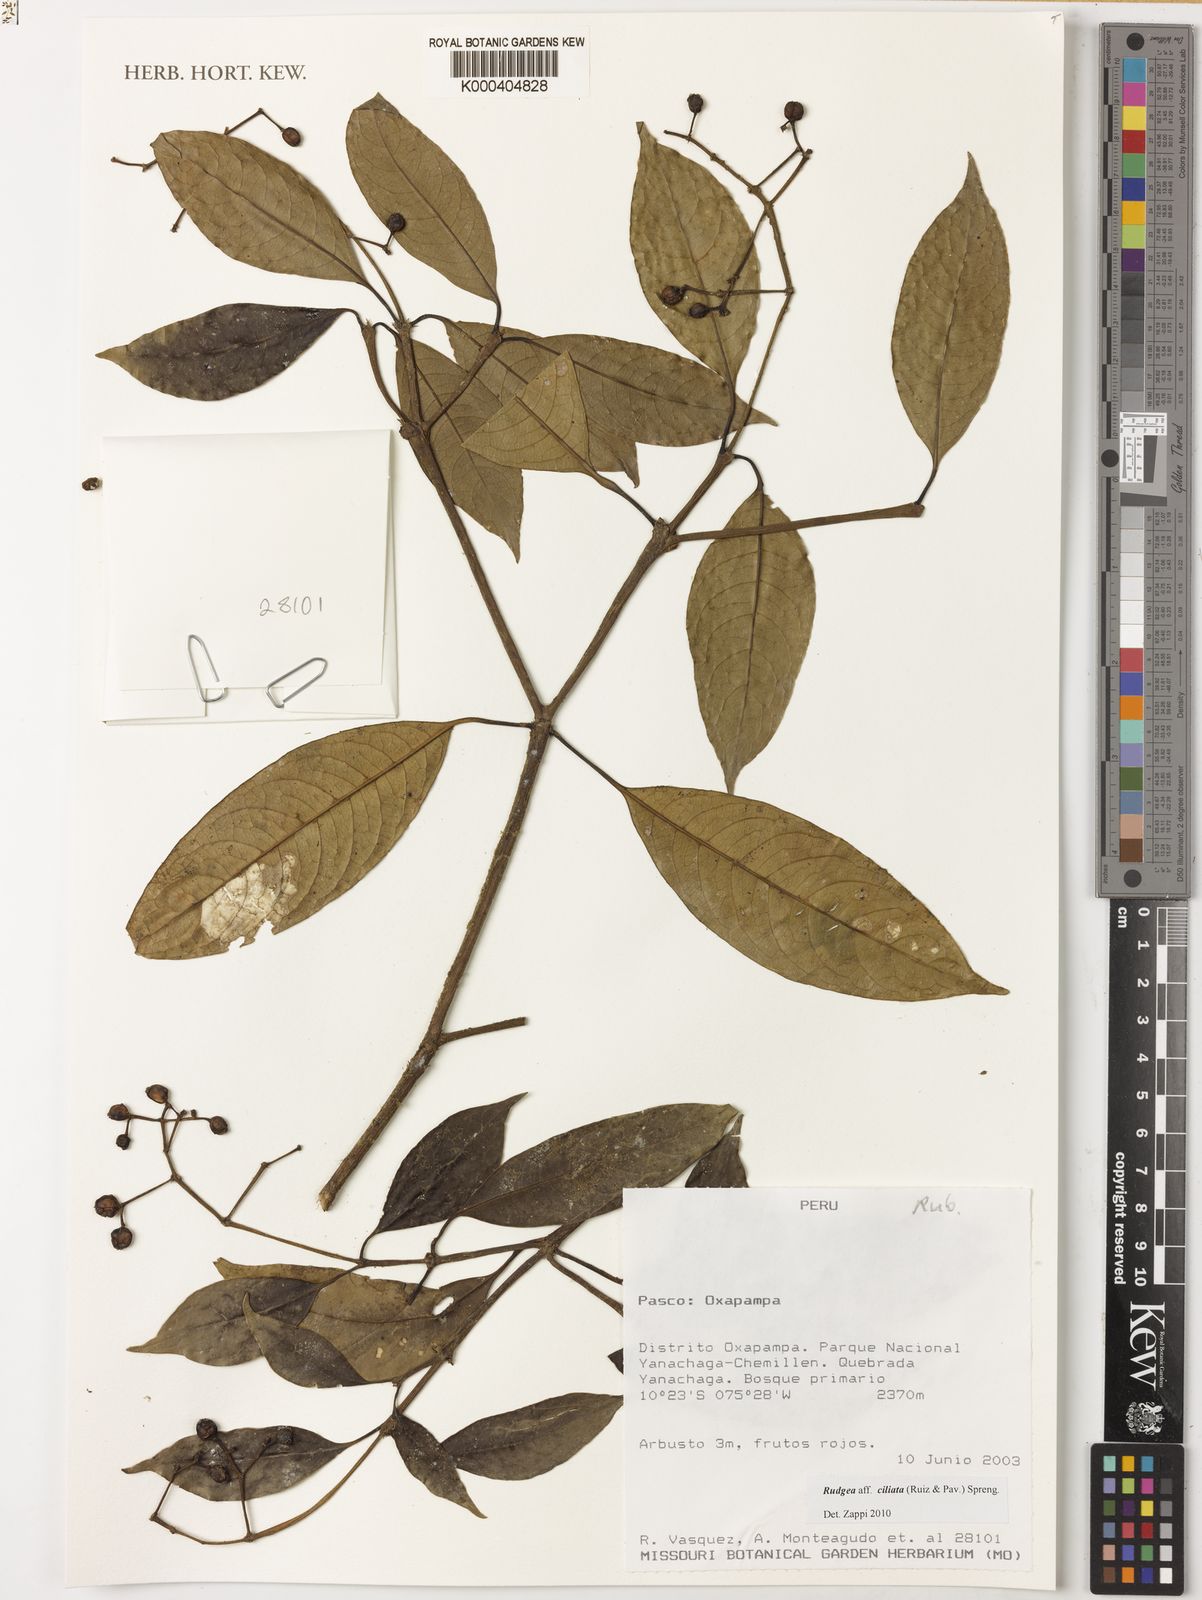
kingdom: Plantae
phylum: Tracheophyta
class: Magnoliopsida
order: Gentianales
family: Rubiaceae
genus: Rudgea
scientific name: Rudgea ciliata
